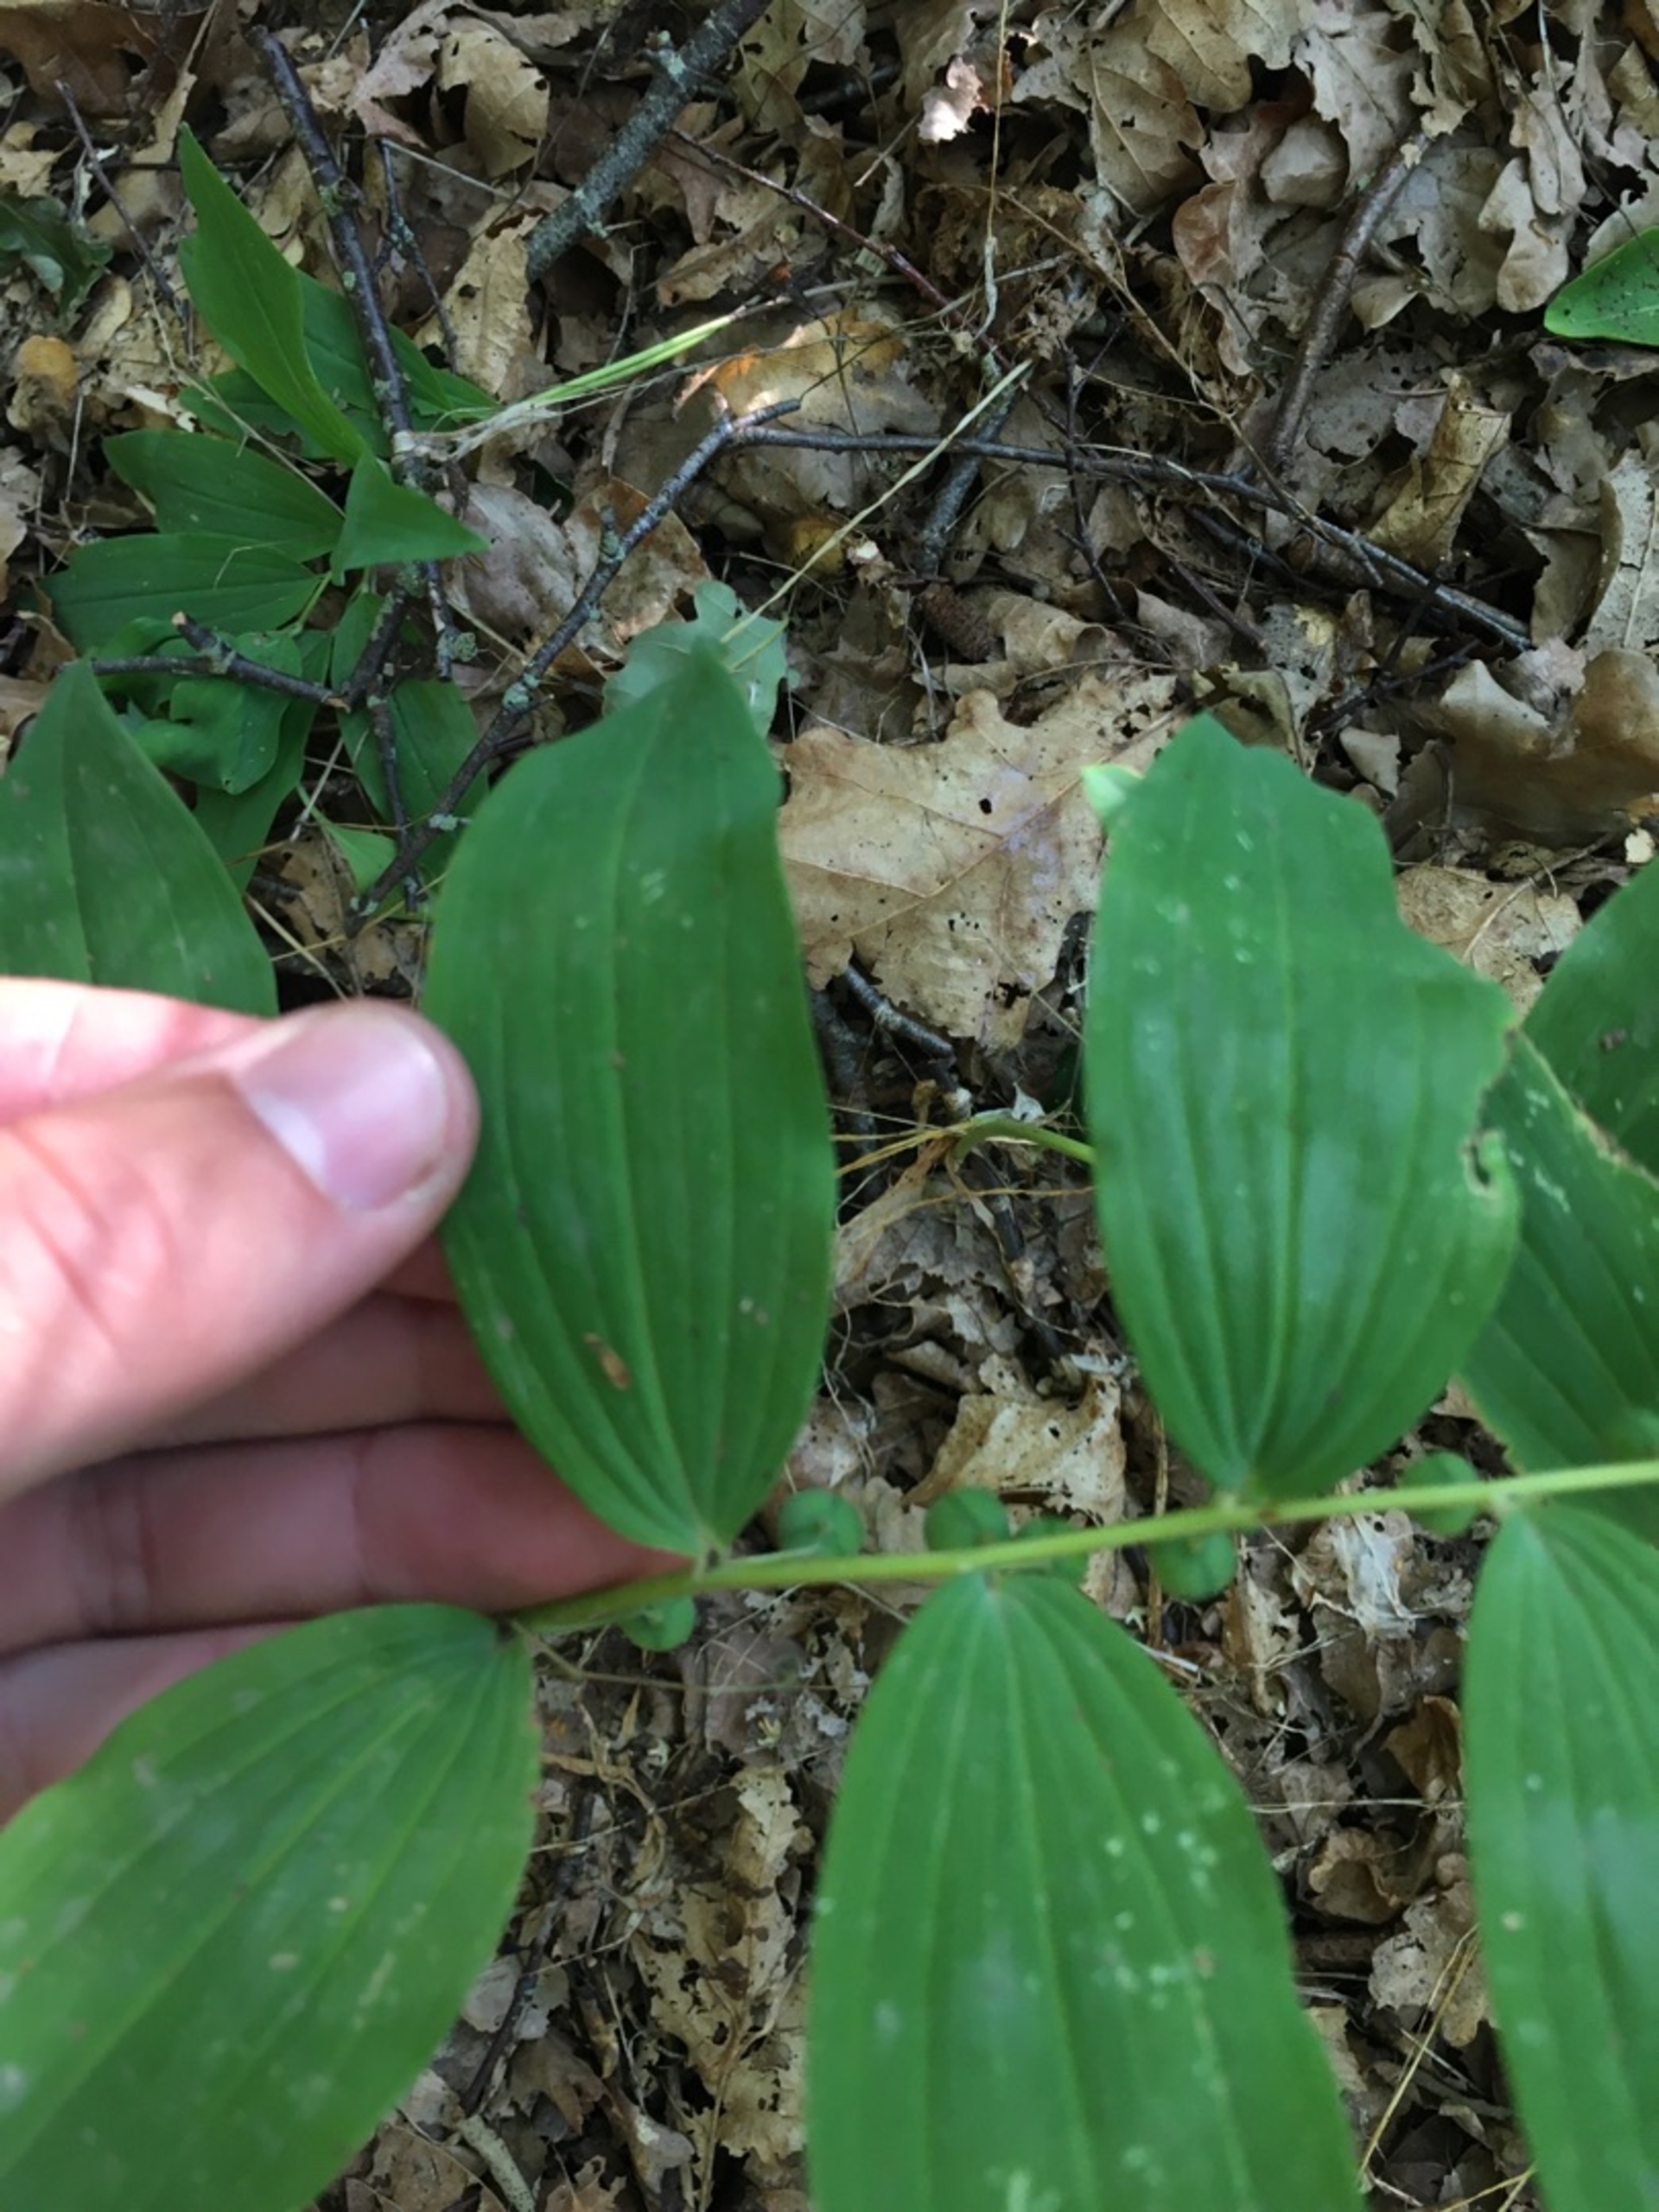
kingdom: Plantae
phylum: Tracheophyta
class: Liliopsida
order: Asparagales
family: Asparagaceae
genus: Polygonatum
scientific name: Polygonatum multiflorum
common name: Stor konval
